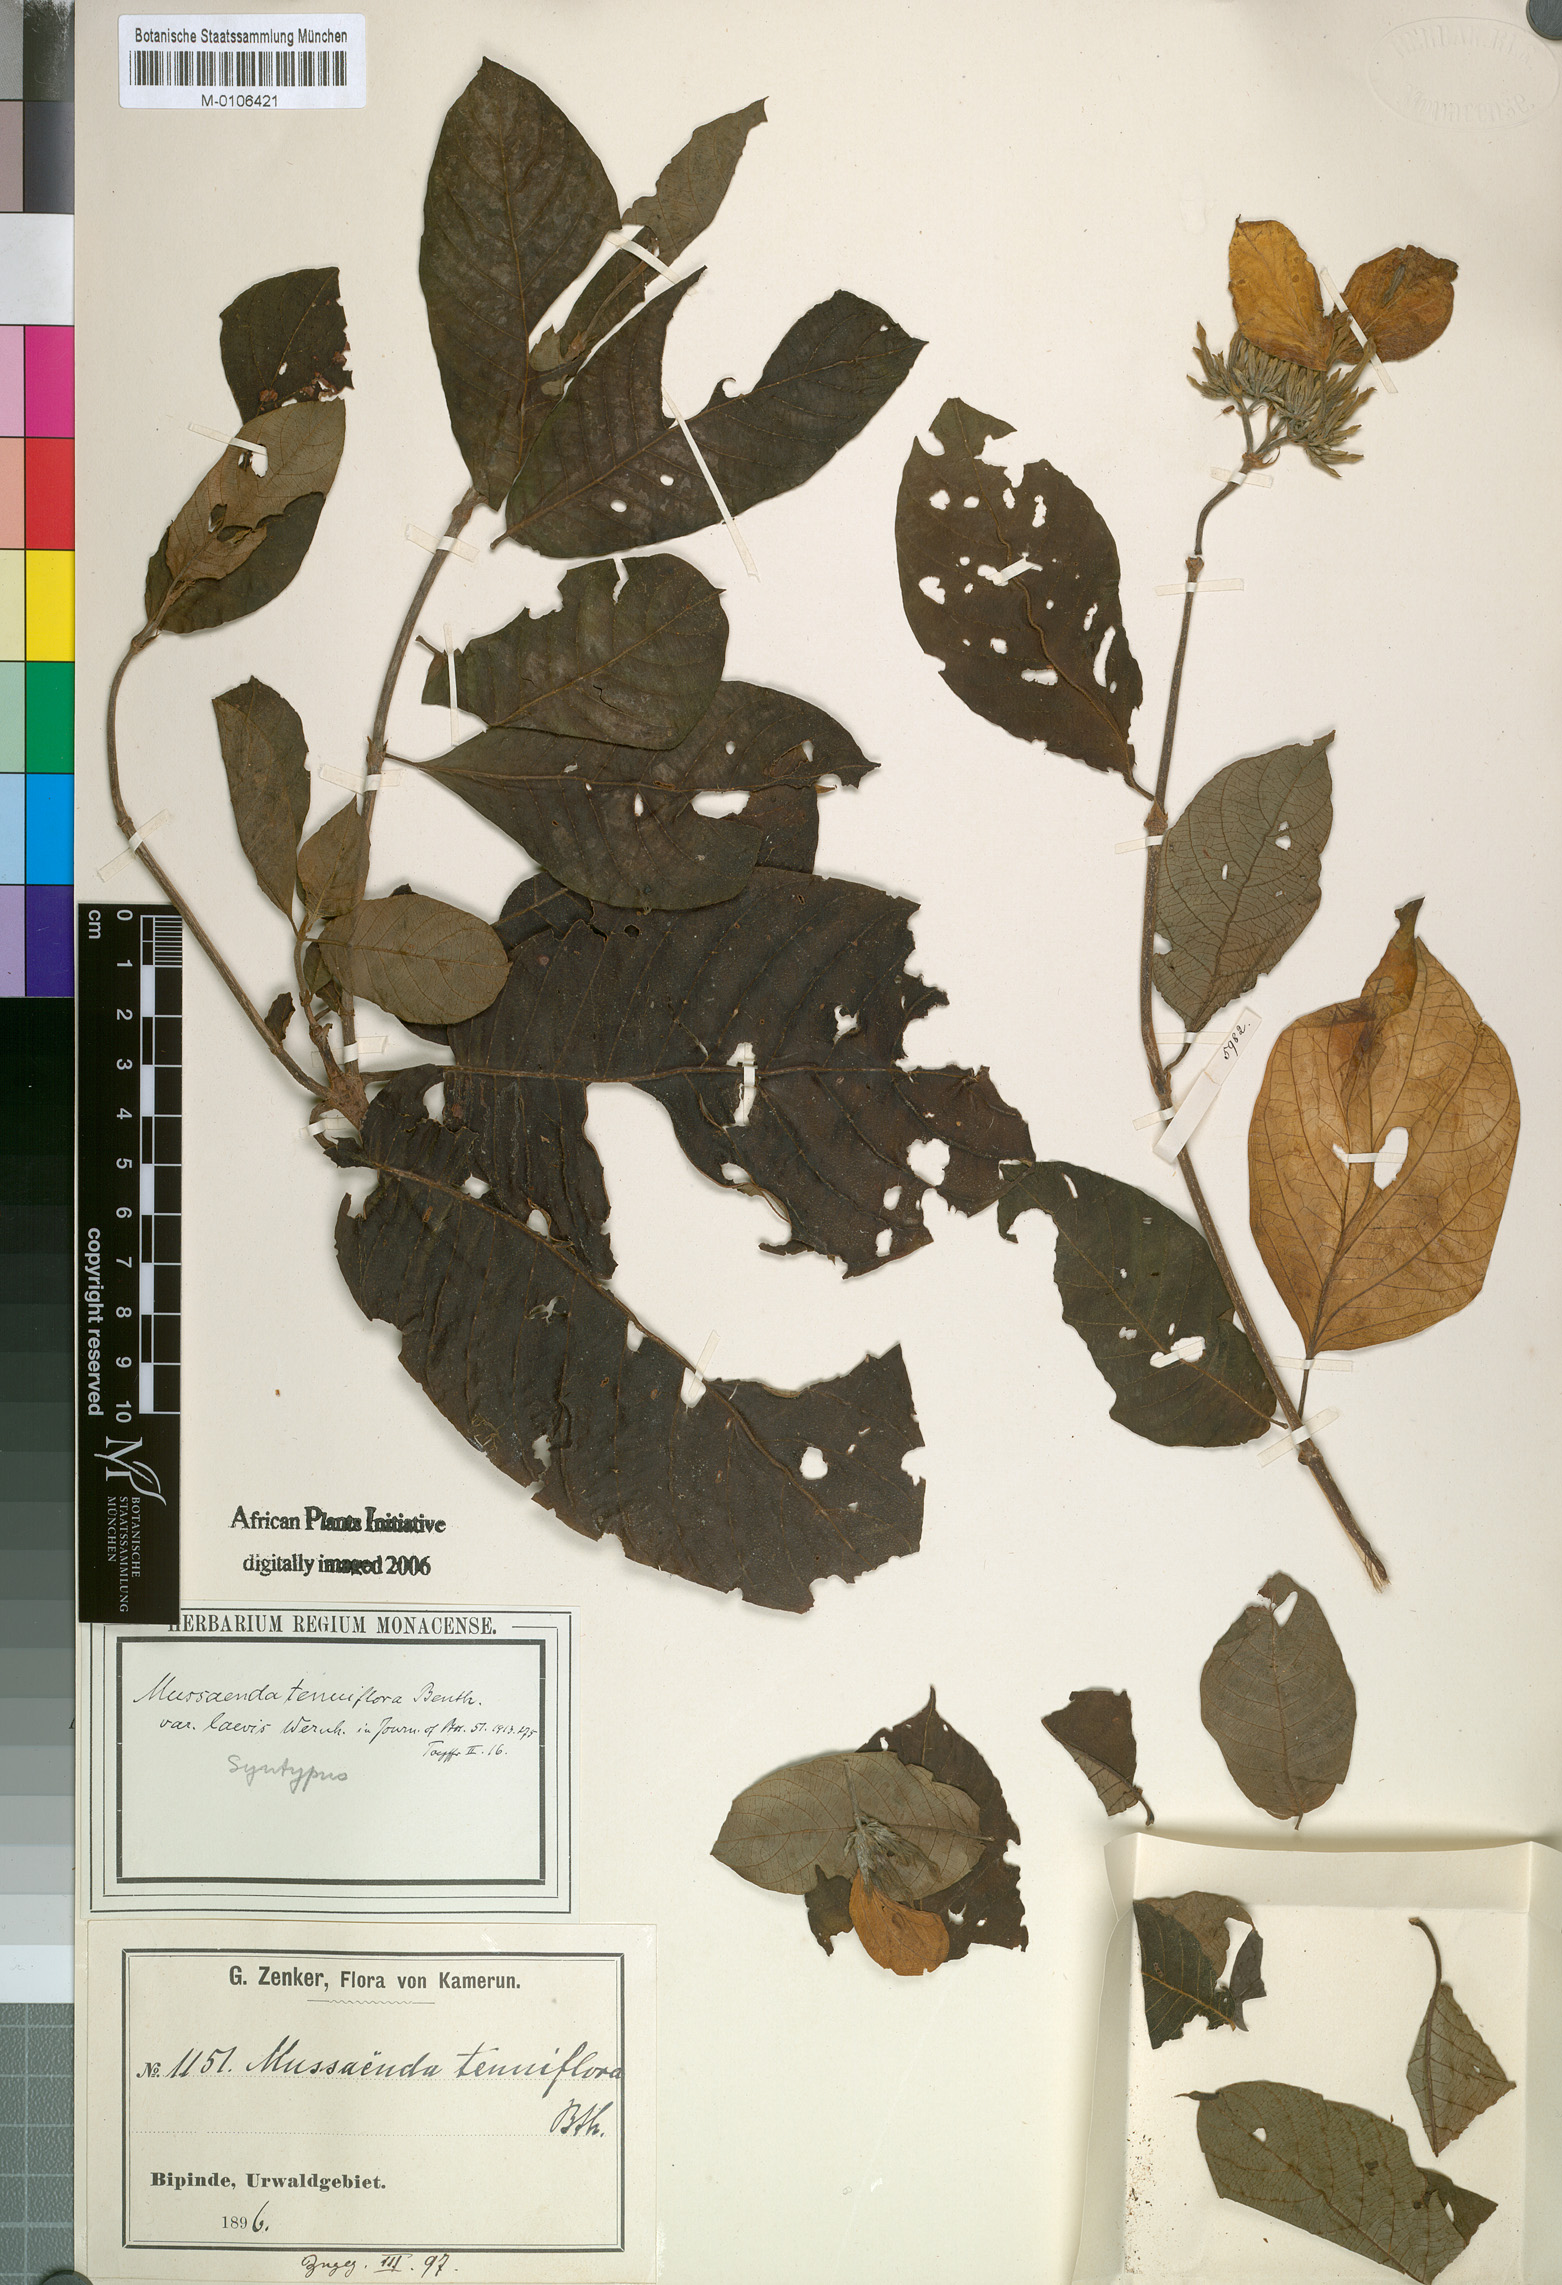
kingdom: Plantae
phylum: Tracheophyta
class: Magnoliopsida
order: Gentianales
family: Rubiaceae
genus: Mussaenda
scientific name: Mussaenda tenuiflora
